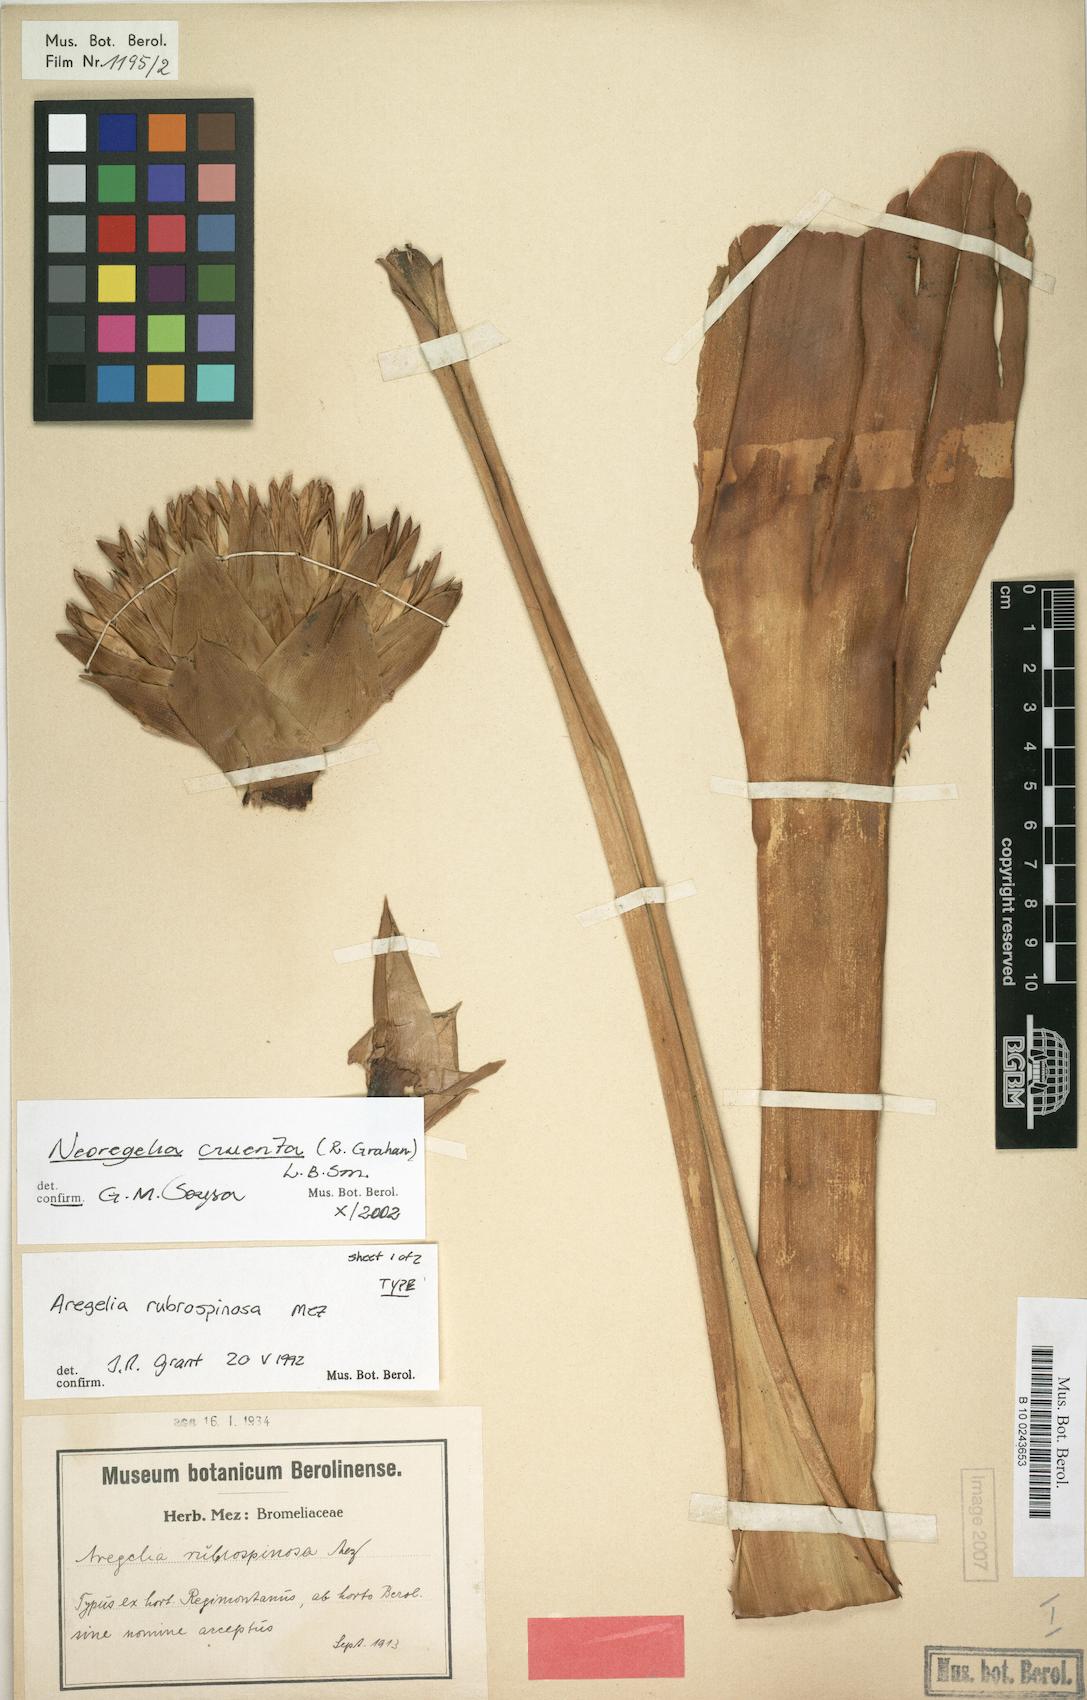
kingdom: Plantae
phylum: Tracheophyta
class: Liliopsida
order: Poales
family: Bromeliaceae
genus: Neoregelia
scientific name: Neoregelia cruenta
